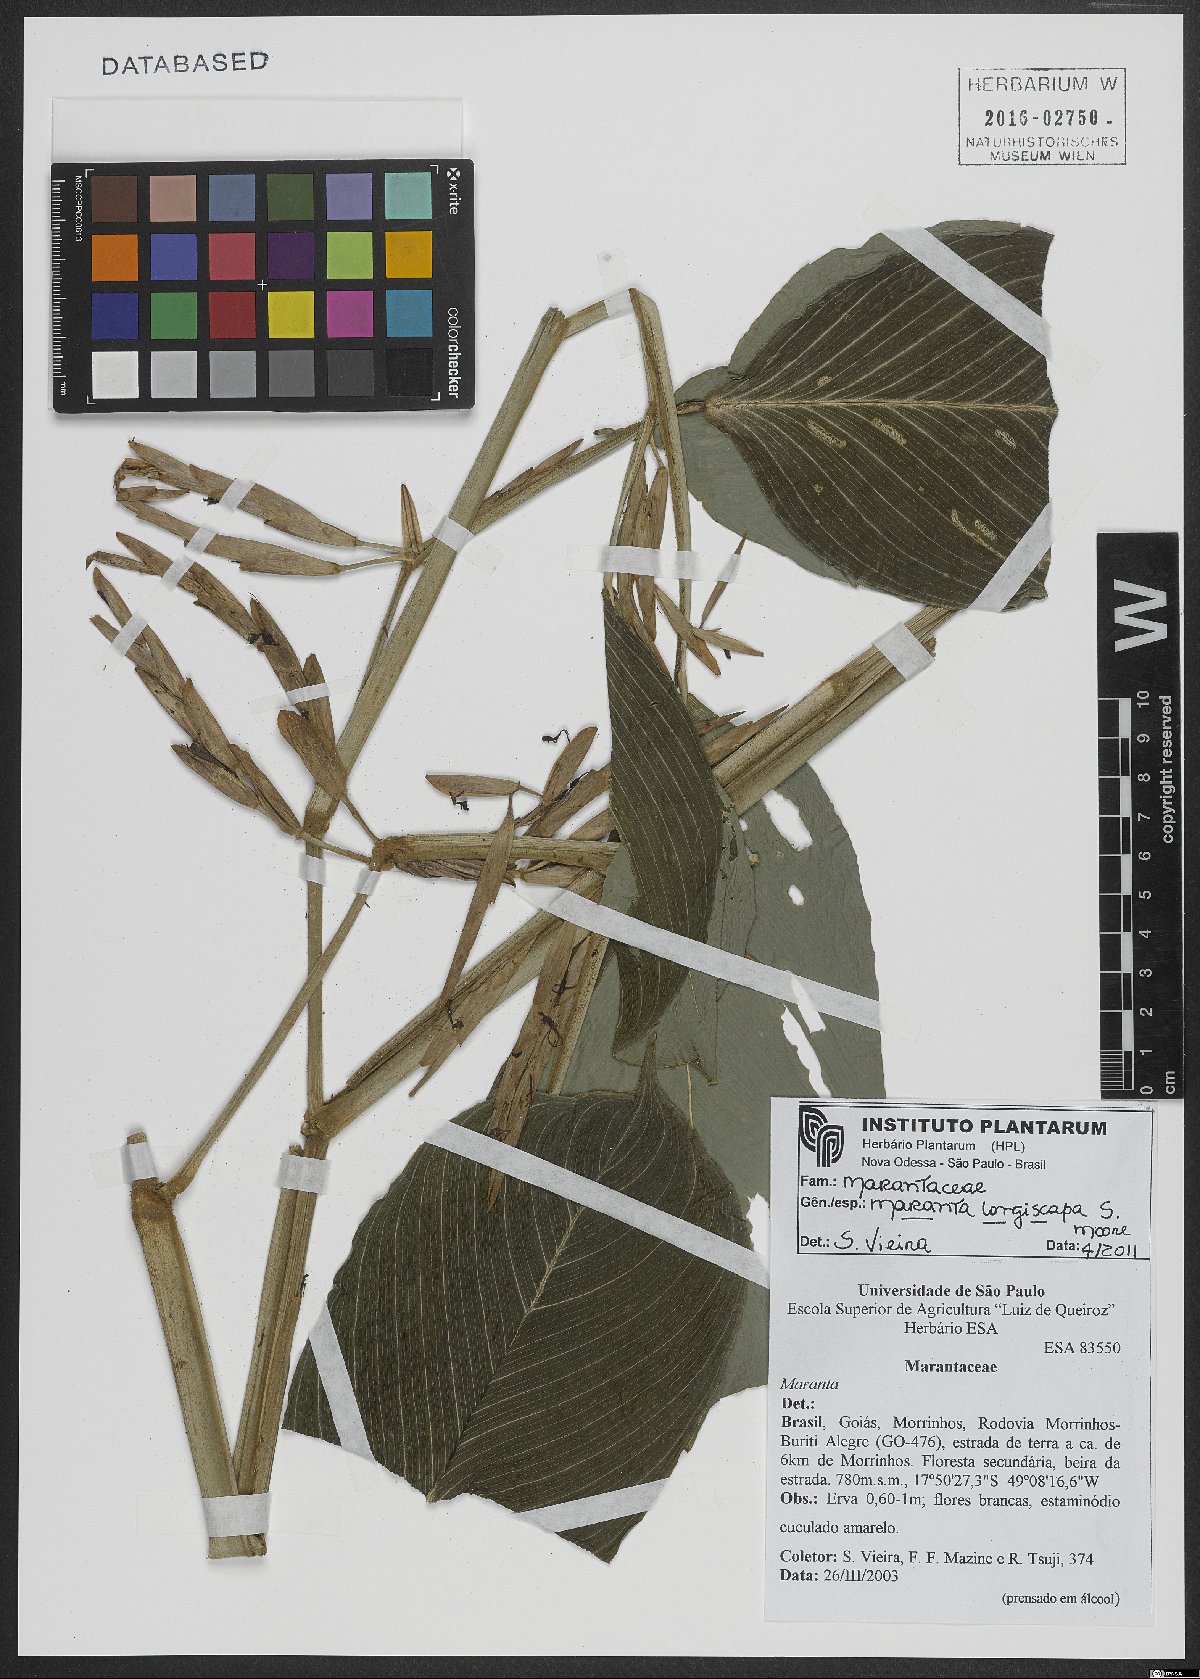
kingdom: Plantae
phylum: Tracheophyta
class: Liliopsida
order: Zingiberales
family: Marantaceae
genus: Maranta
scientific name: Maranta phrynioides
